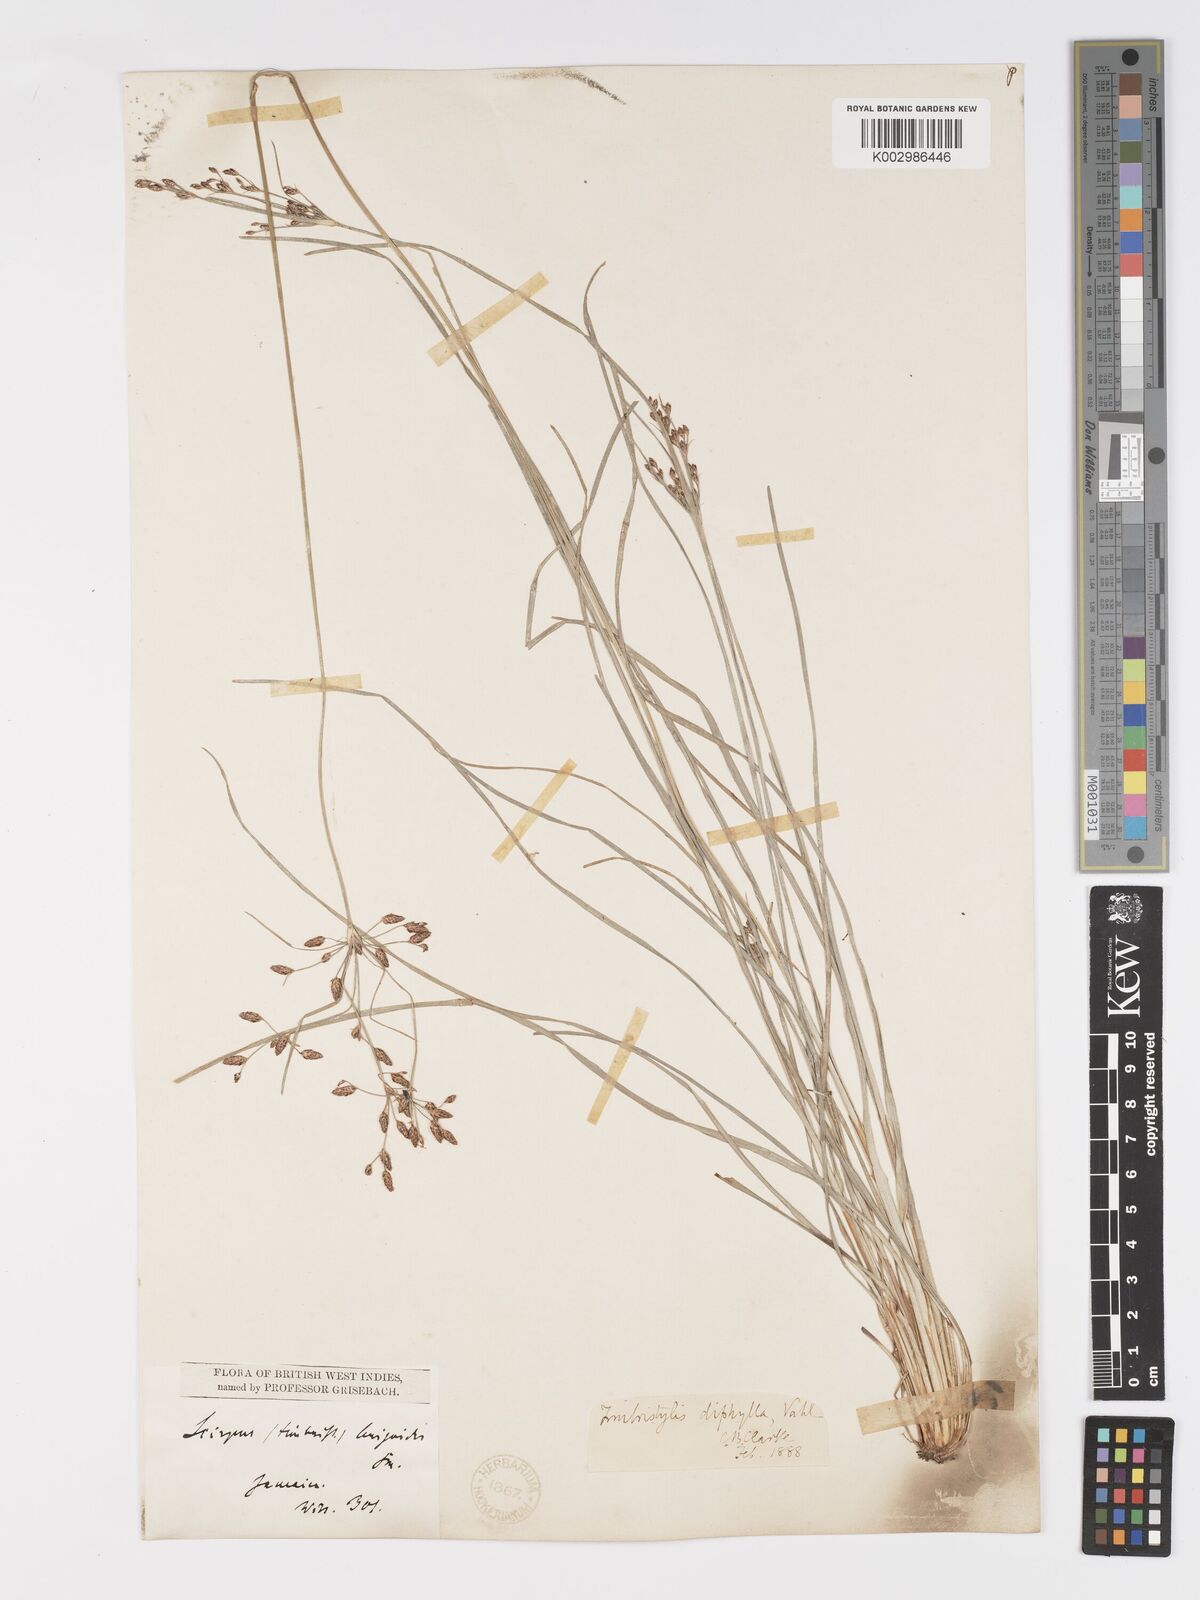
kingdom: Plantae
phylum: Tracheophyta
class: Liliopsida
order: Poales
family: Cyperaceae
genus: Fimbristylis
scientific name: Fimbristylis dichotoma
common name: Forked fimbry
